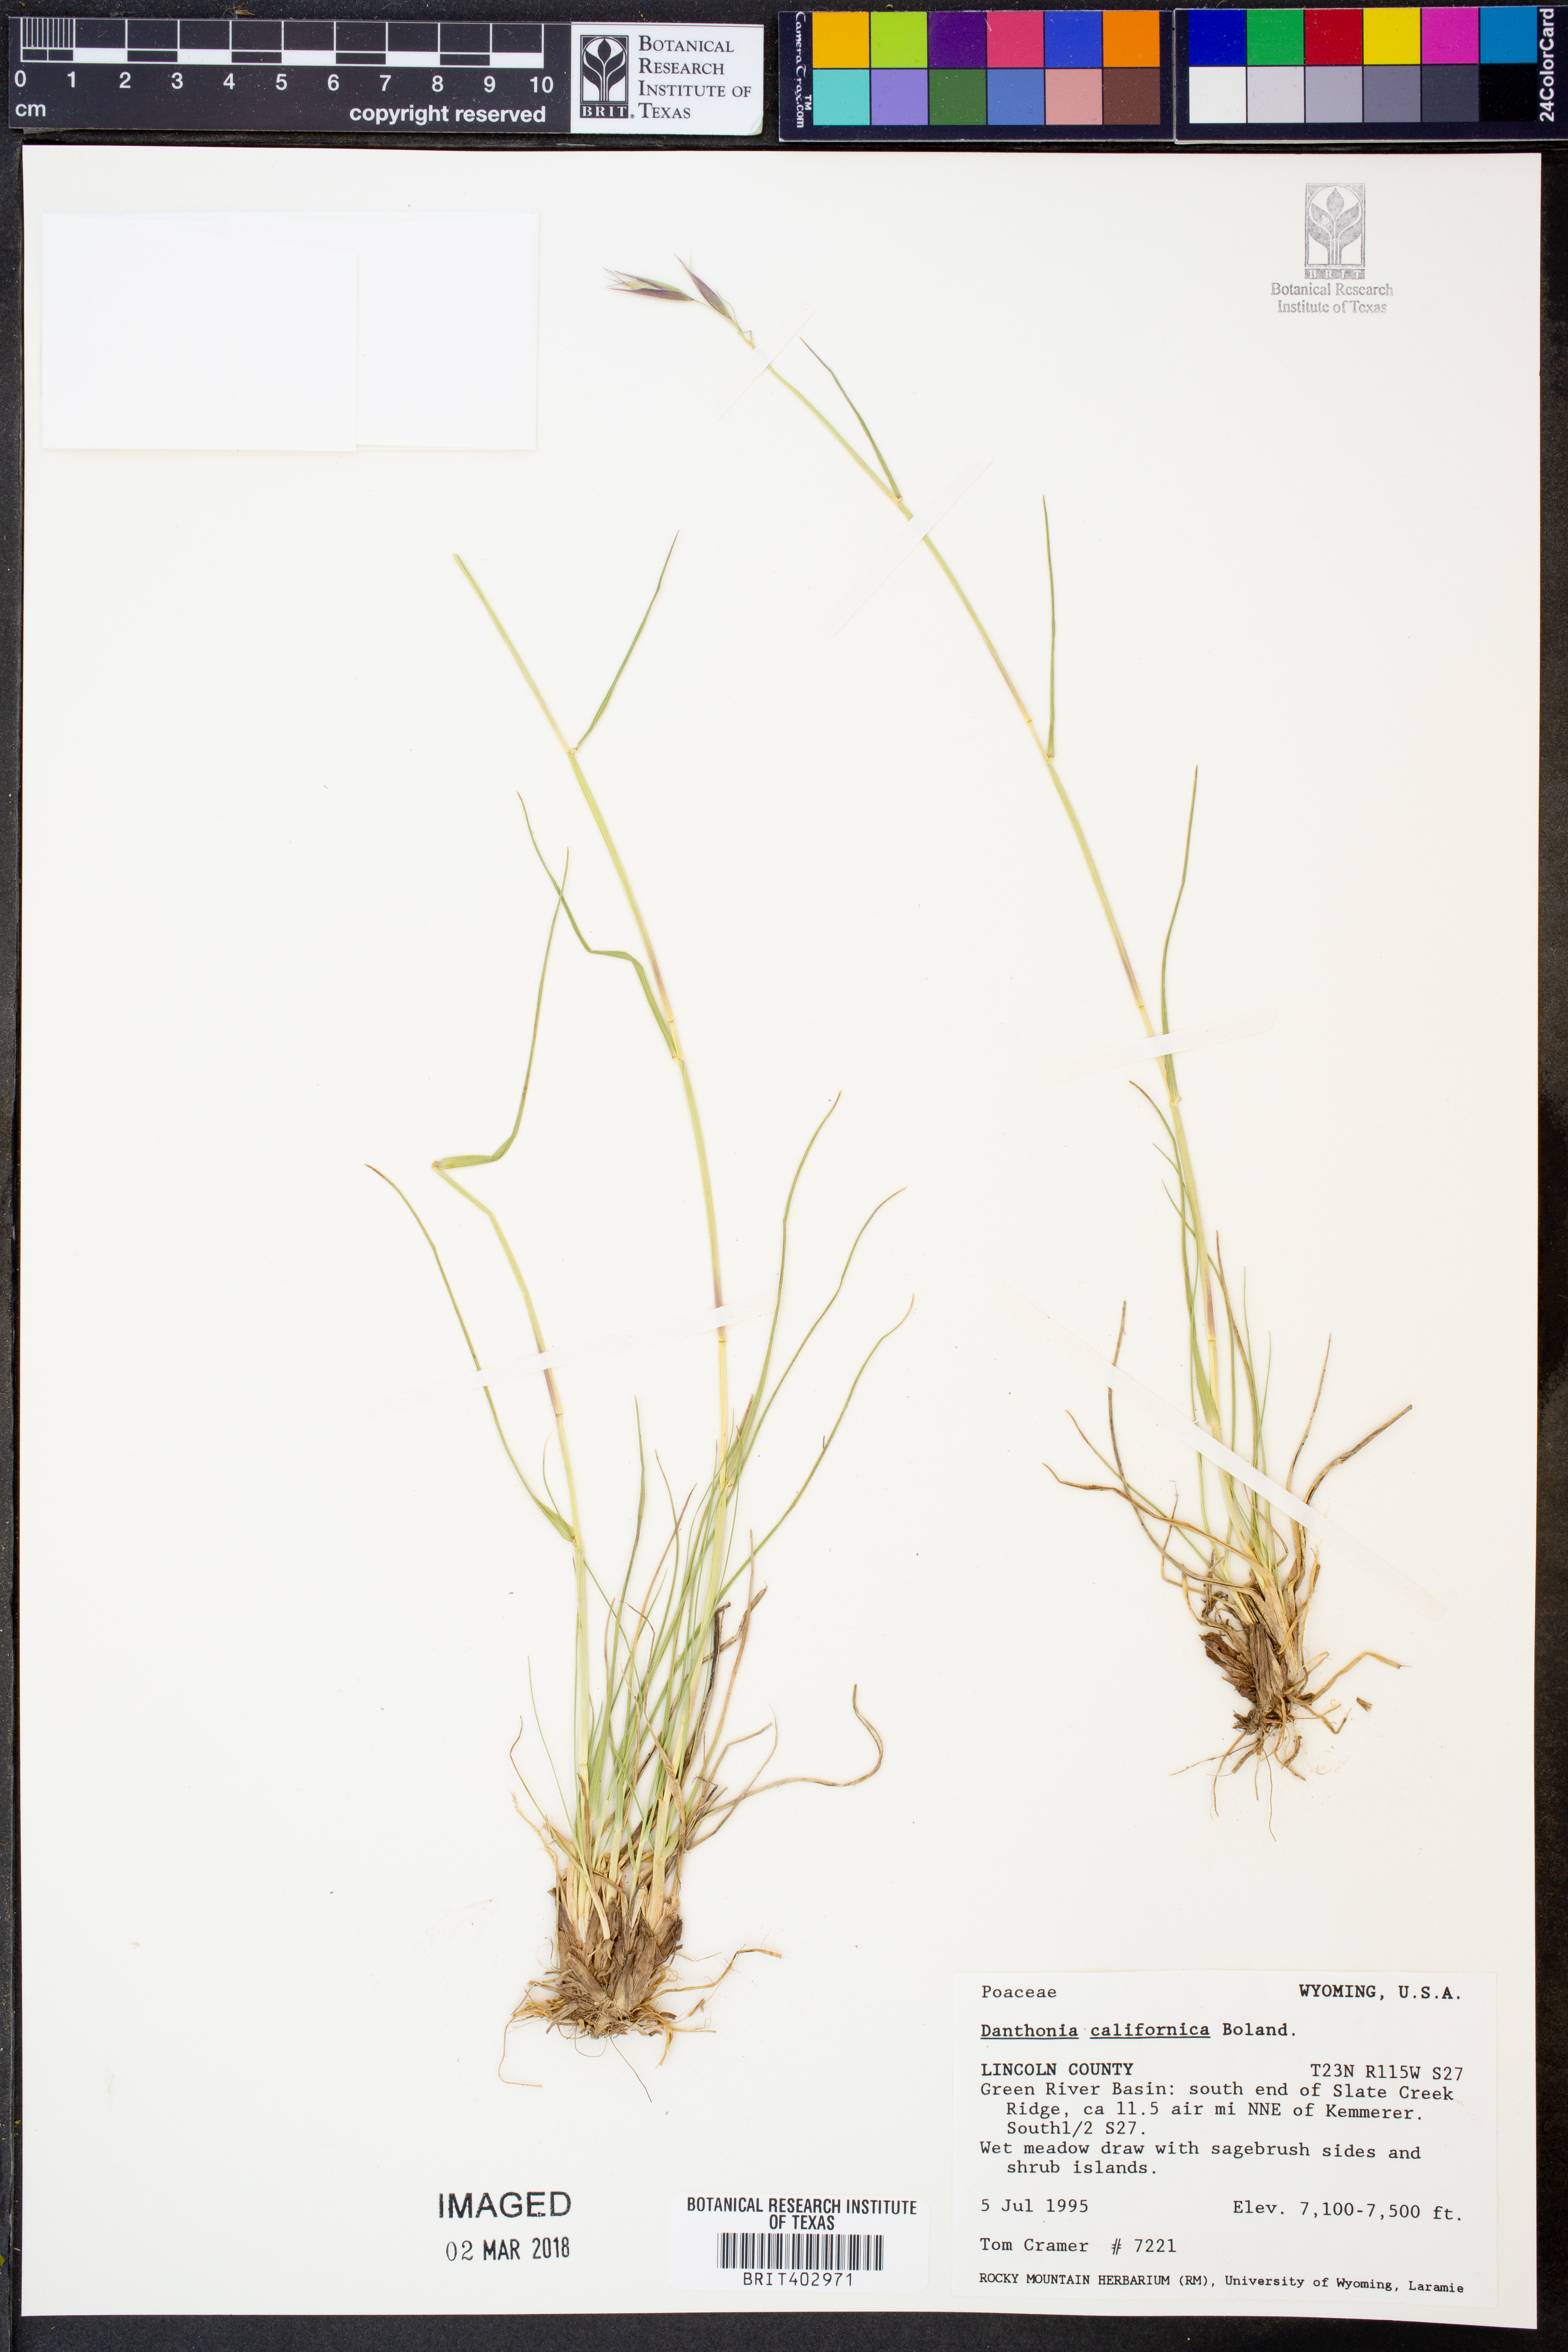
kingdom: Plantae
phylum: Tracheophyta
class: Liliopsida
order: Poales
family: Poaceae
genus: Danthonia
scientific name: Danthonia californica
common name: California oat grass
